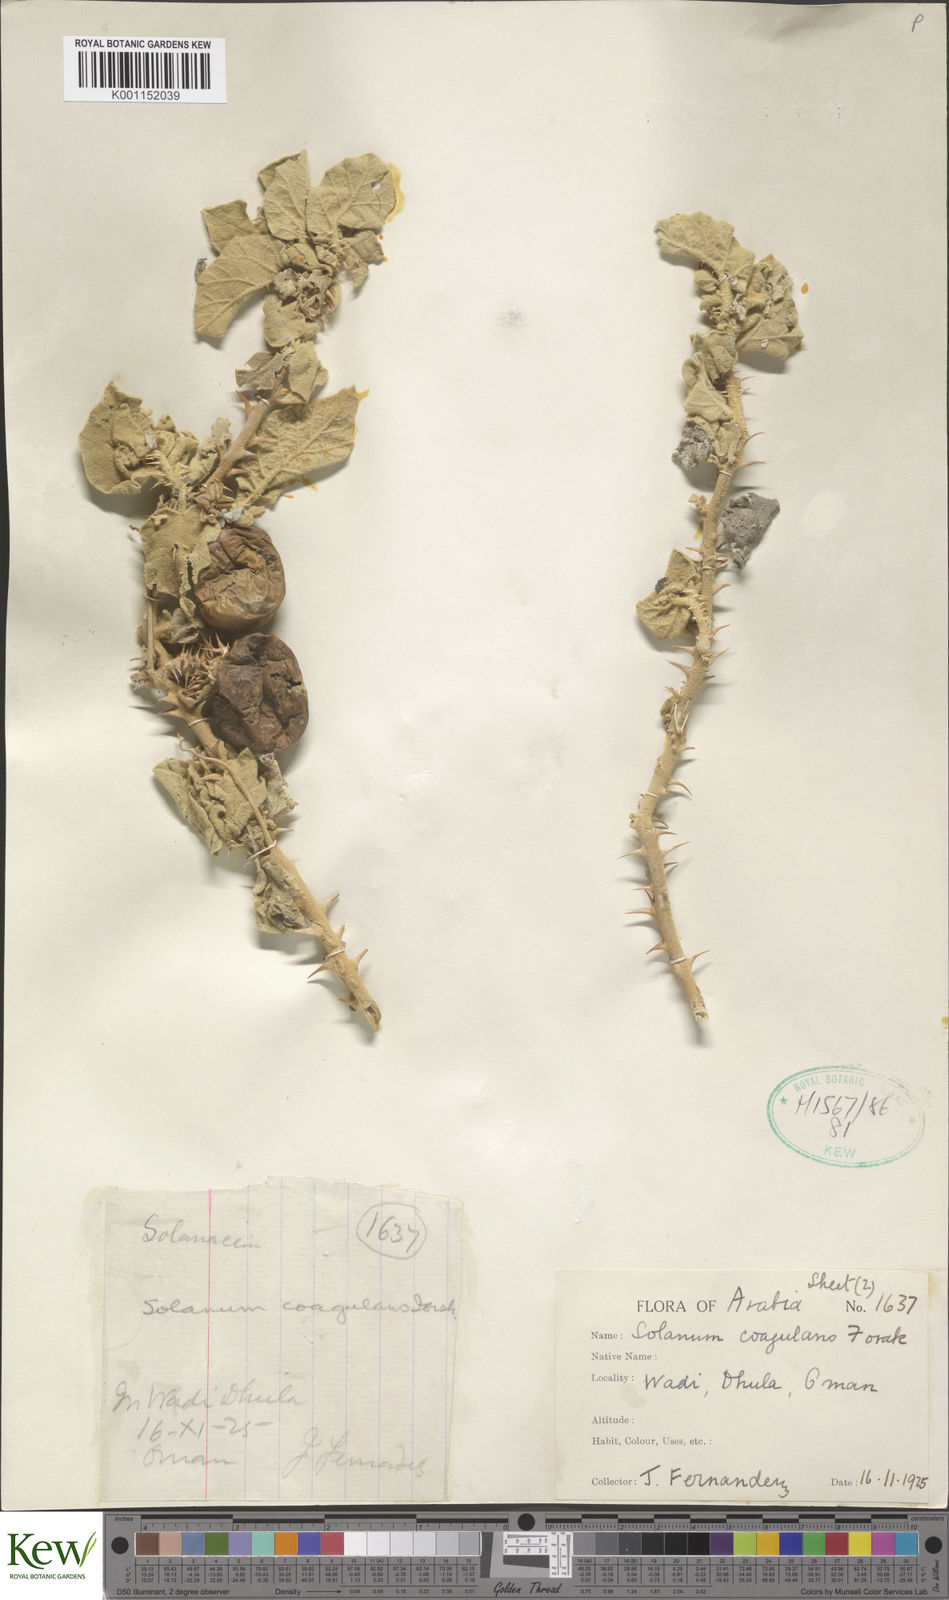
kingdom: Plantae
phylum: Tracheophyta
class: Magnoliopsida
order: Solanales
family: Solanaceae
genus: Solanum
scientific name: Solanum coagulans
